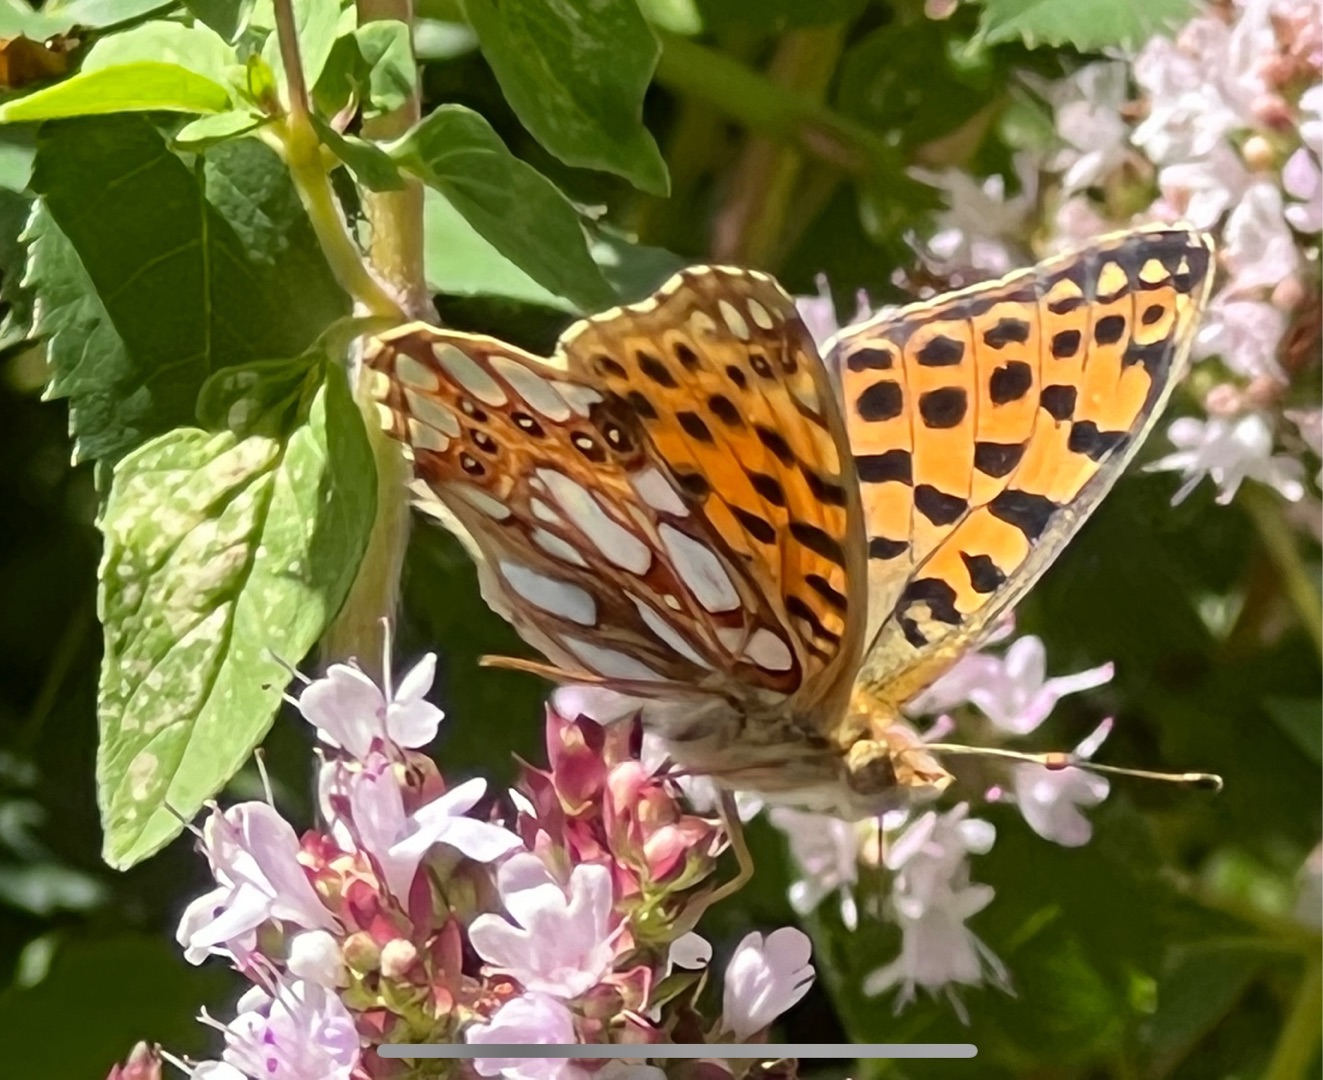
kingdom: Animalia
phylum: Arthropoda
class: Insecta
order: Lepidoptera
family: Nymphalidae
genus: Issoria
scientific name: Issoria lathonia
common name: Storplettet perlemorsommerfugl
